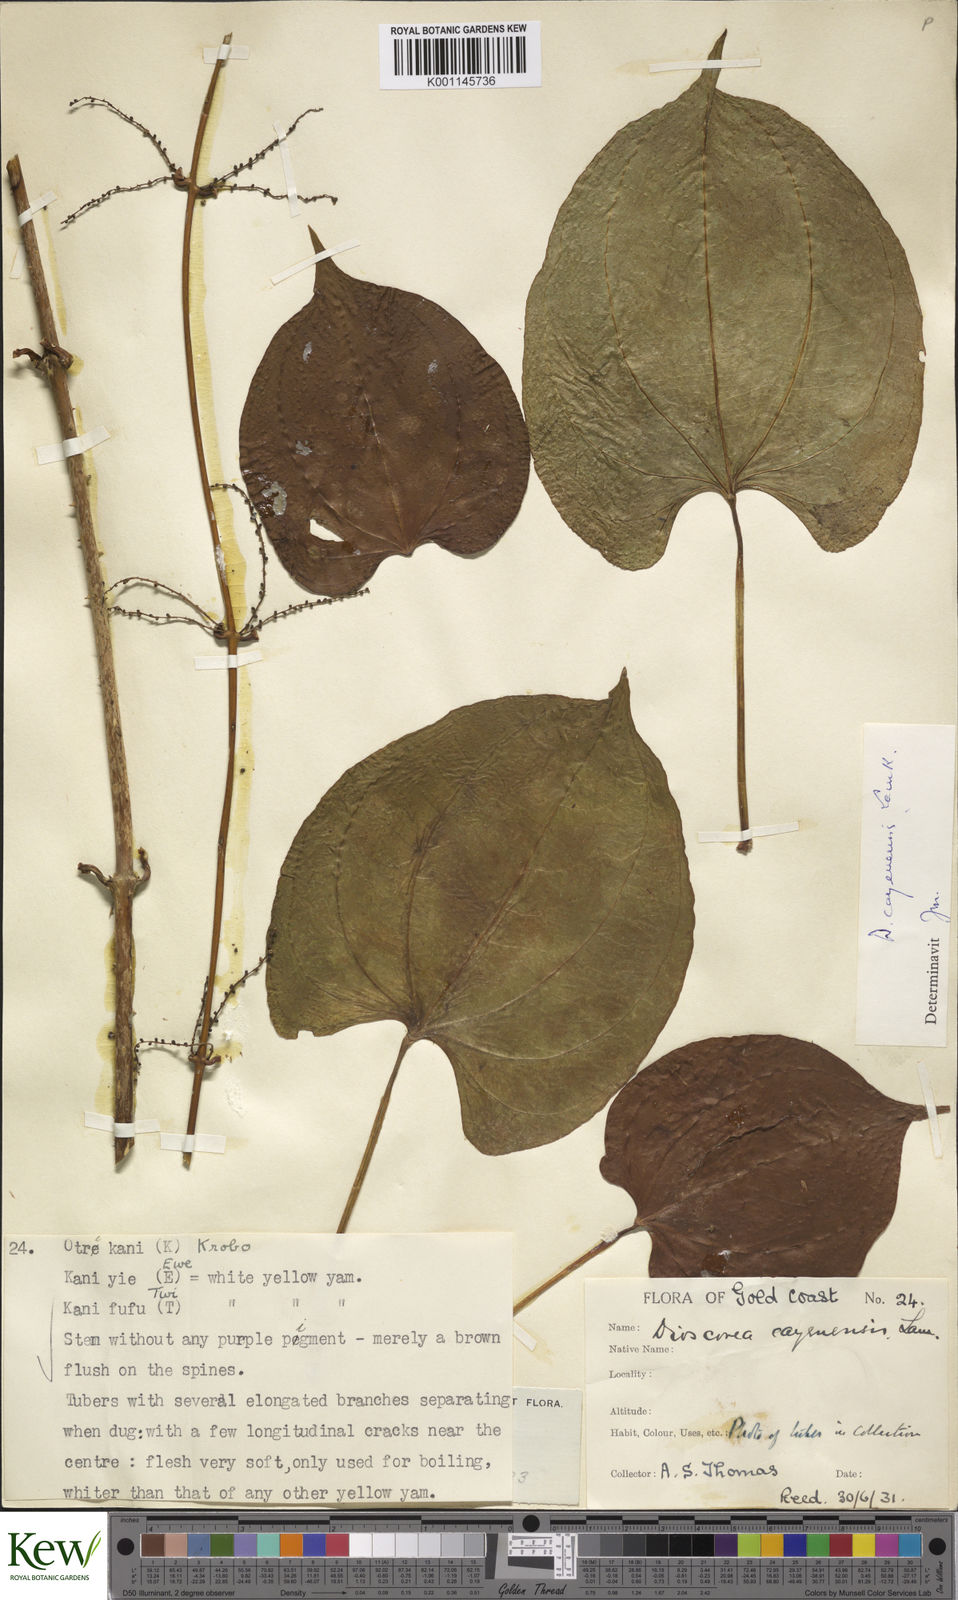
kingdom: Plantae
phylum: Tracheophyta
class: Liliopsida
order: Dioscoreales
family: Dioscoreaceae
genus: Dioscorea
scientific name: Dioscorea cayenensis
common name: Attoto yam
